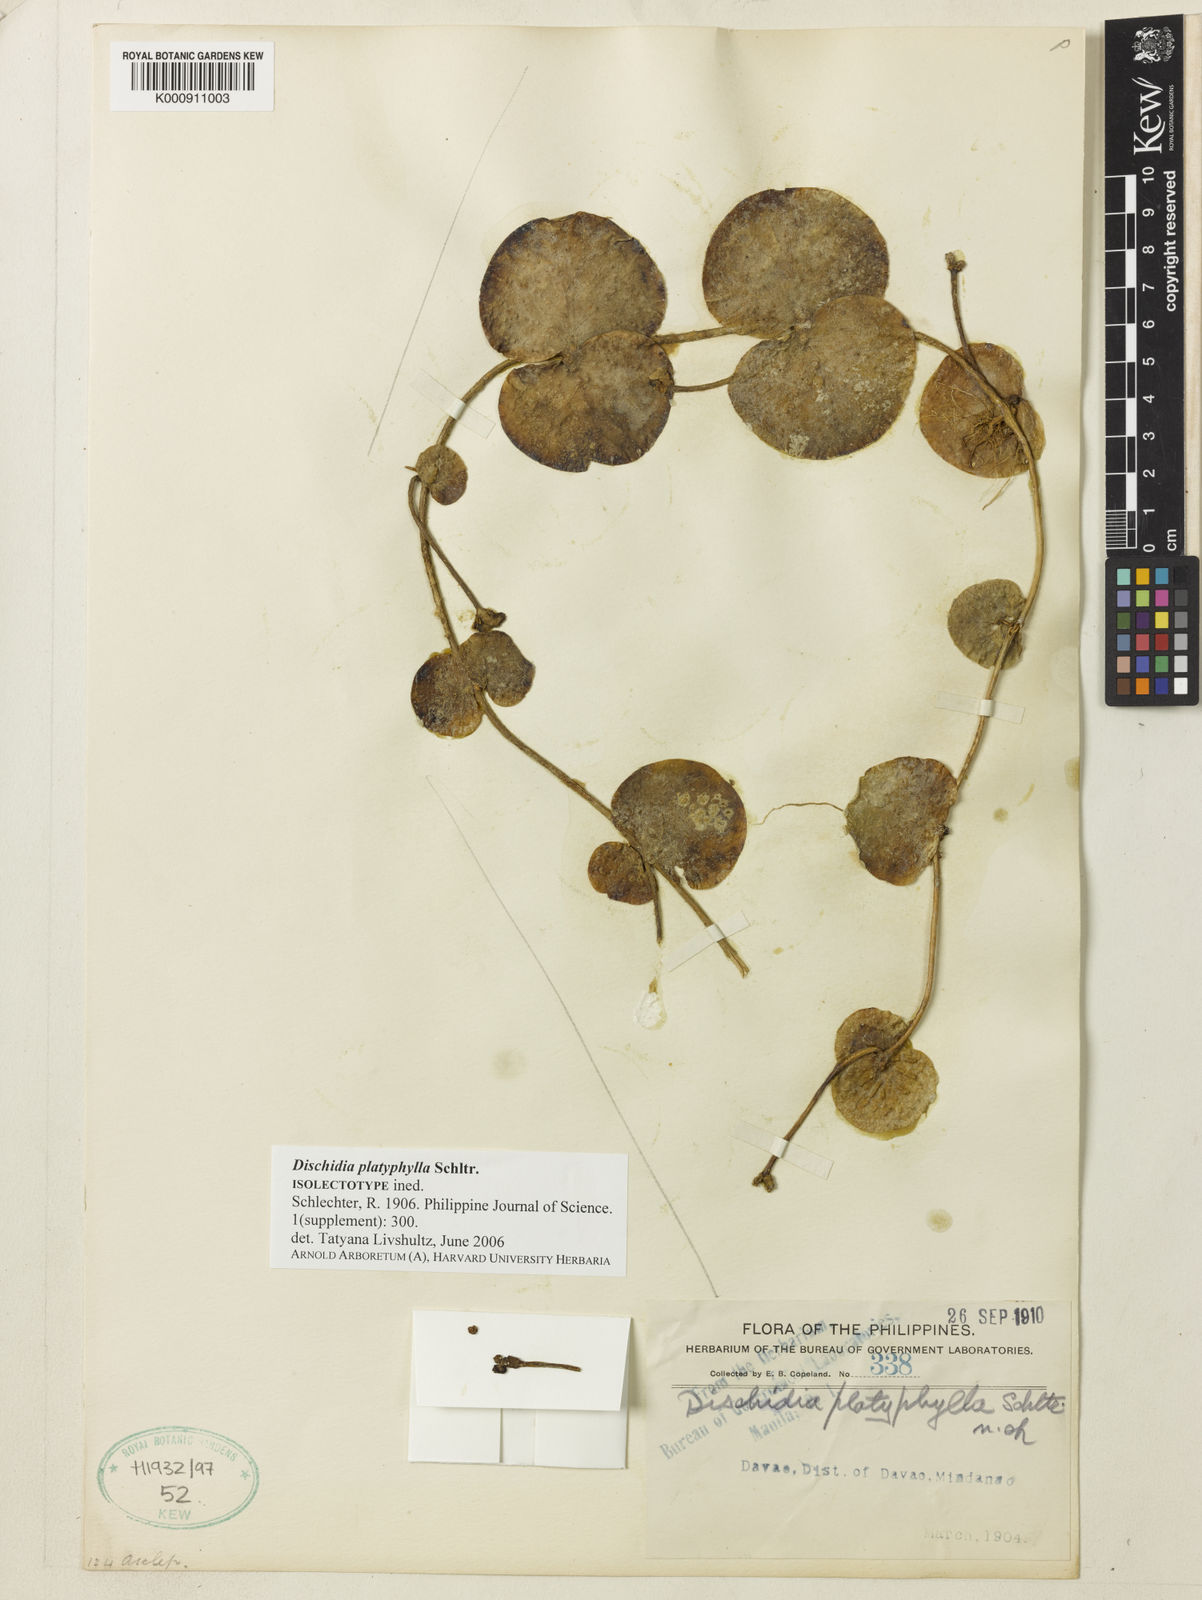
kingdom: Plantae
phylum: Tracheophyta
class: Magnoliopsida
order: Gentianales
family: Apocynaceae
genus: Dischidia
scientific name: Dischidia platyphylla
